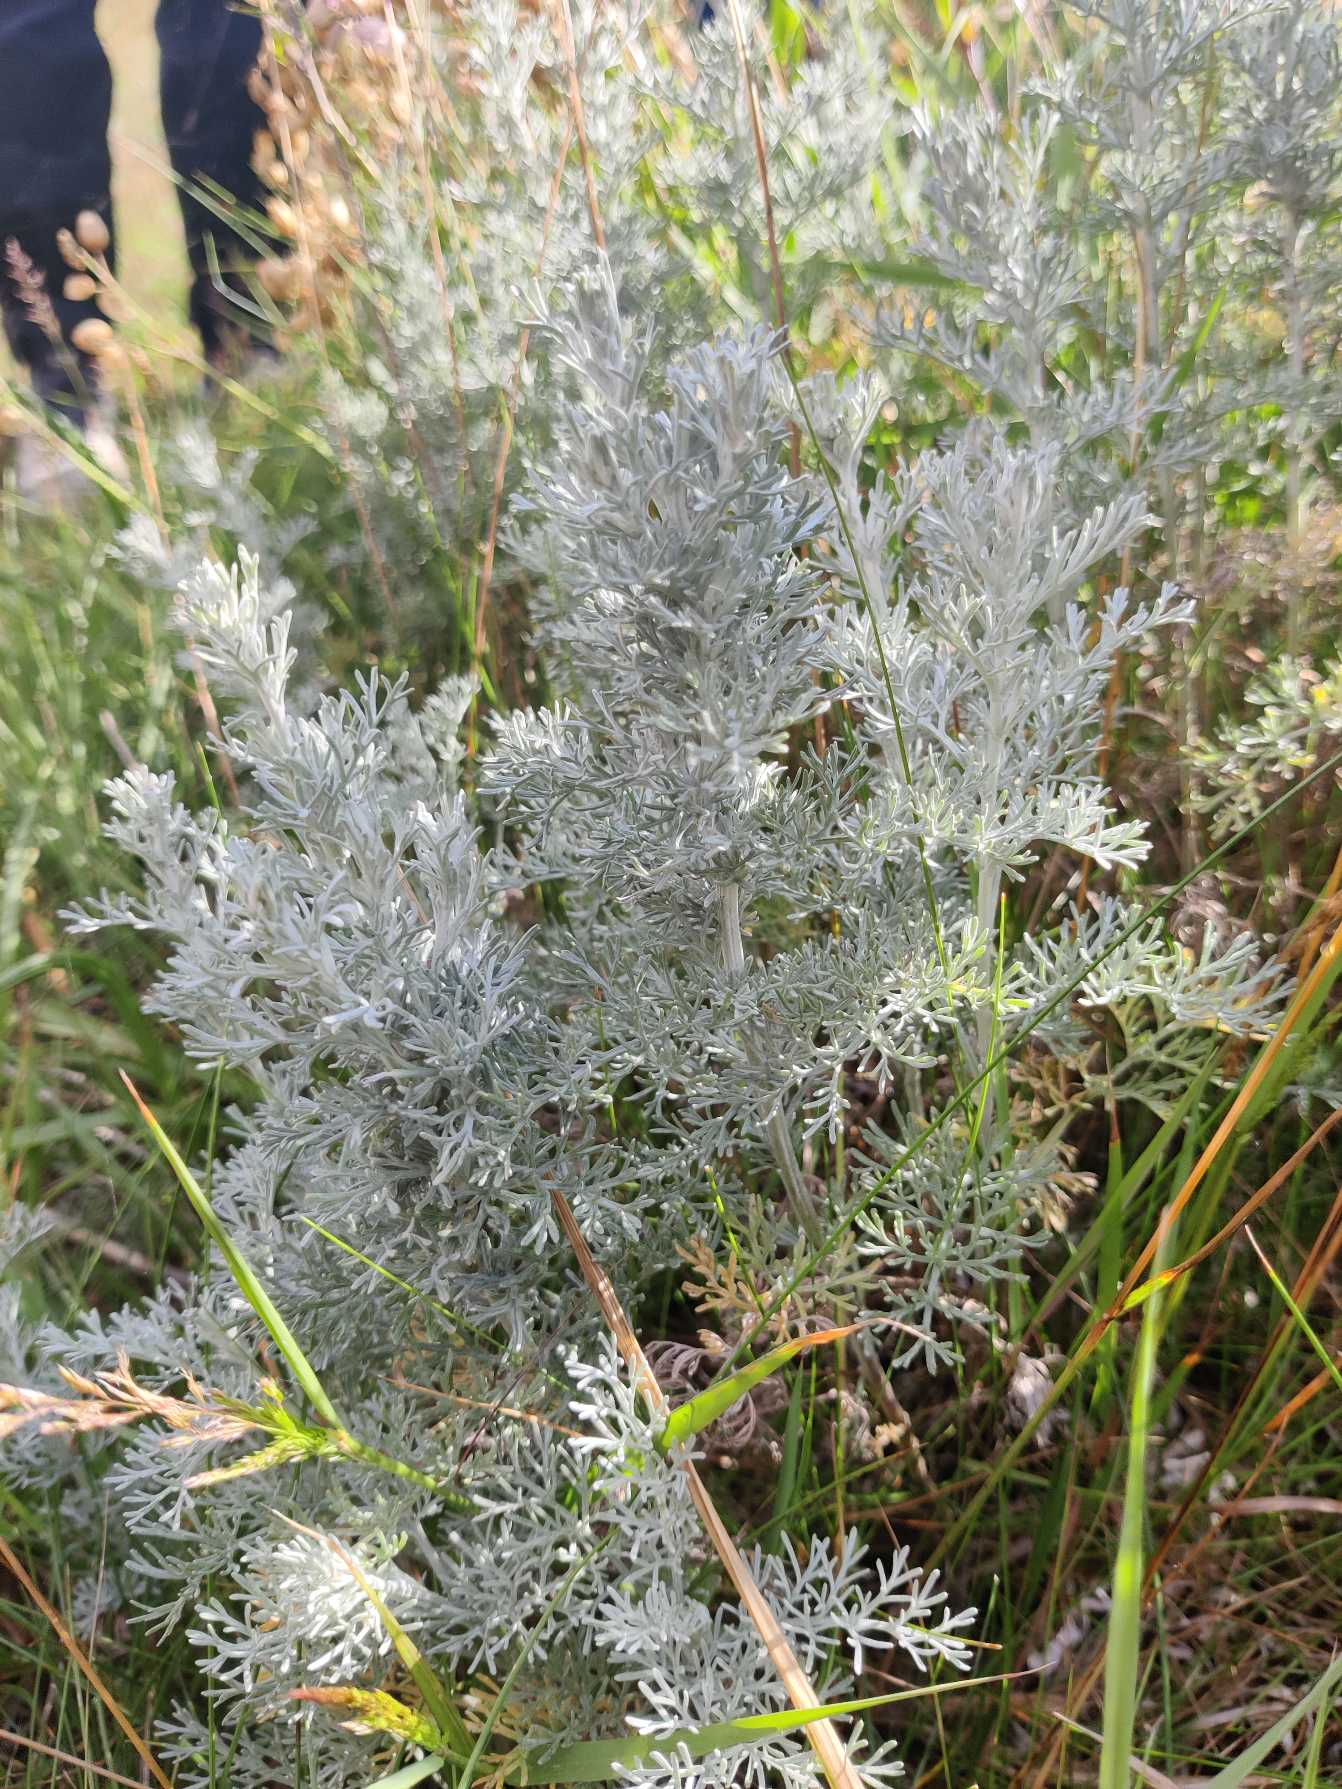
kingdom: Plantae
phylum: Tracheophyta
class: Magnoliopsida
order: Asterales
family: Asteraceae
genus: Artemisia
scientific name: Artemisia maritima
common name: Strandmalurt
